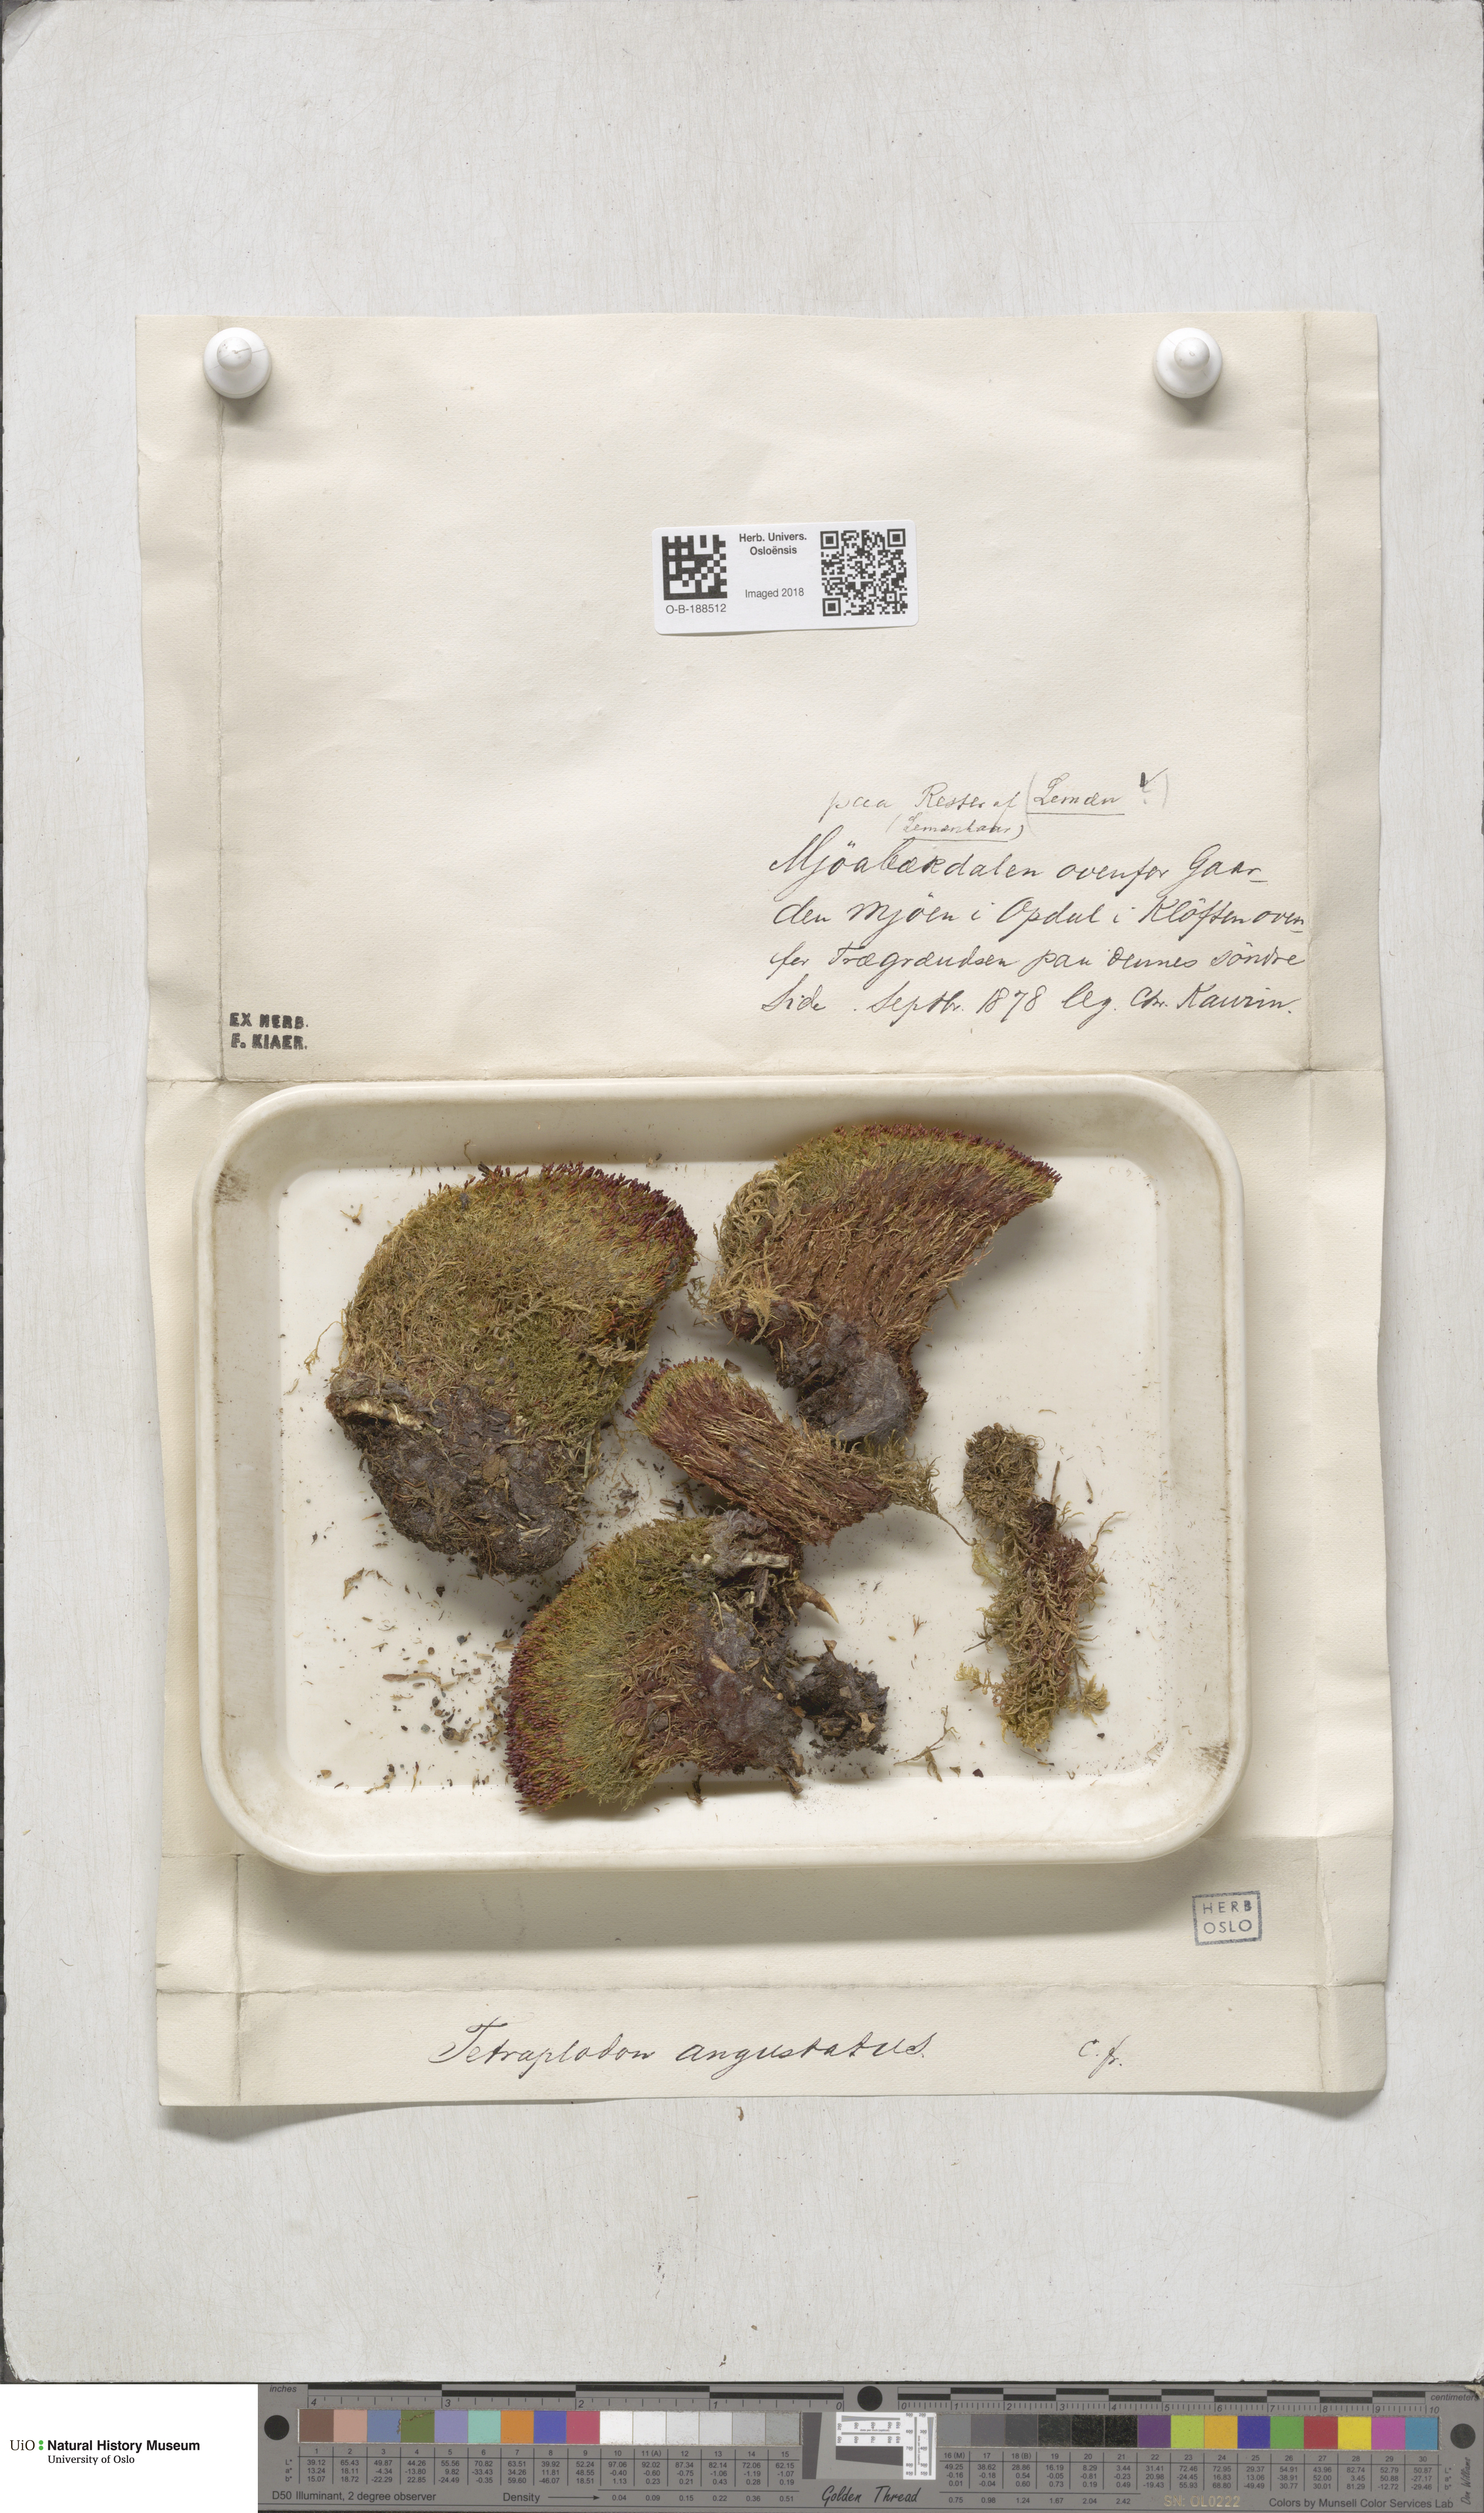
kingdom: Plantae
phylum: Bryophyta
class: Bryopsida
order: Splachnales
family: Splachnaceae
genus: Tetraplodon
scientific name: Tetraplodon angustatus
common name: Narrow cruet-moss
